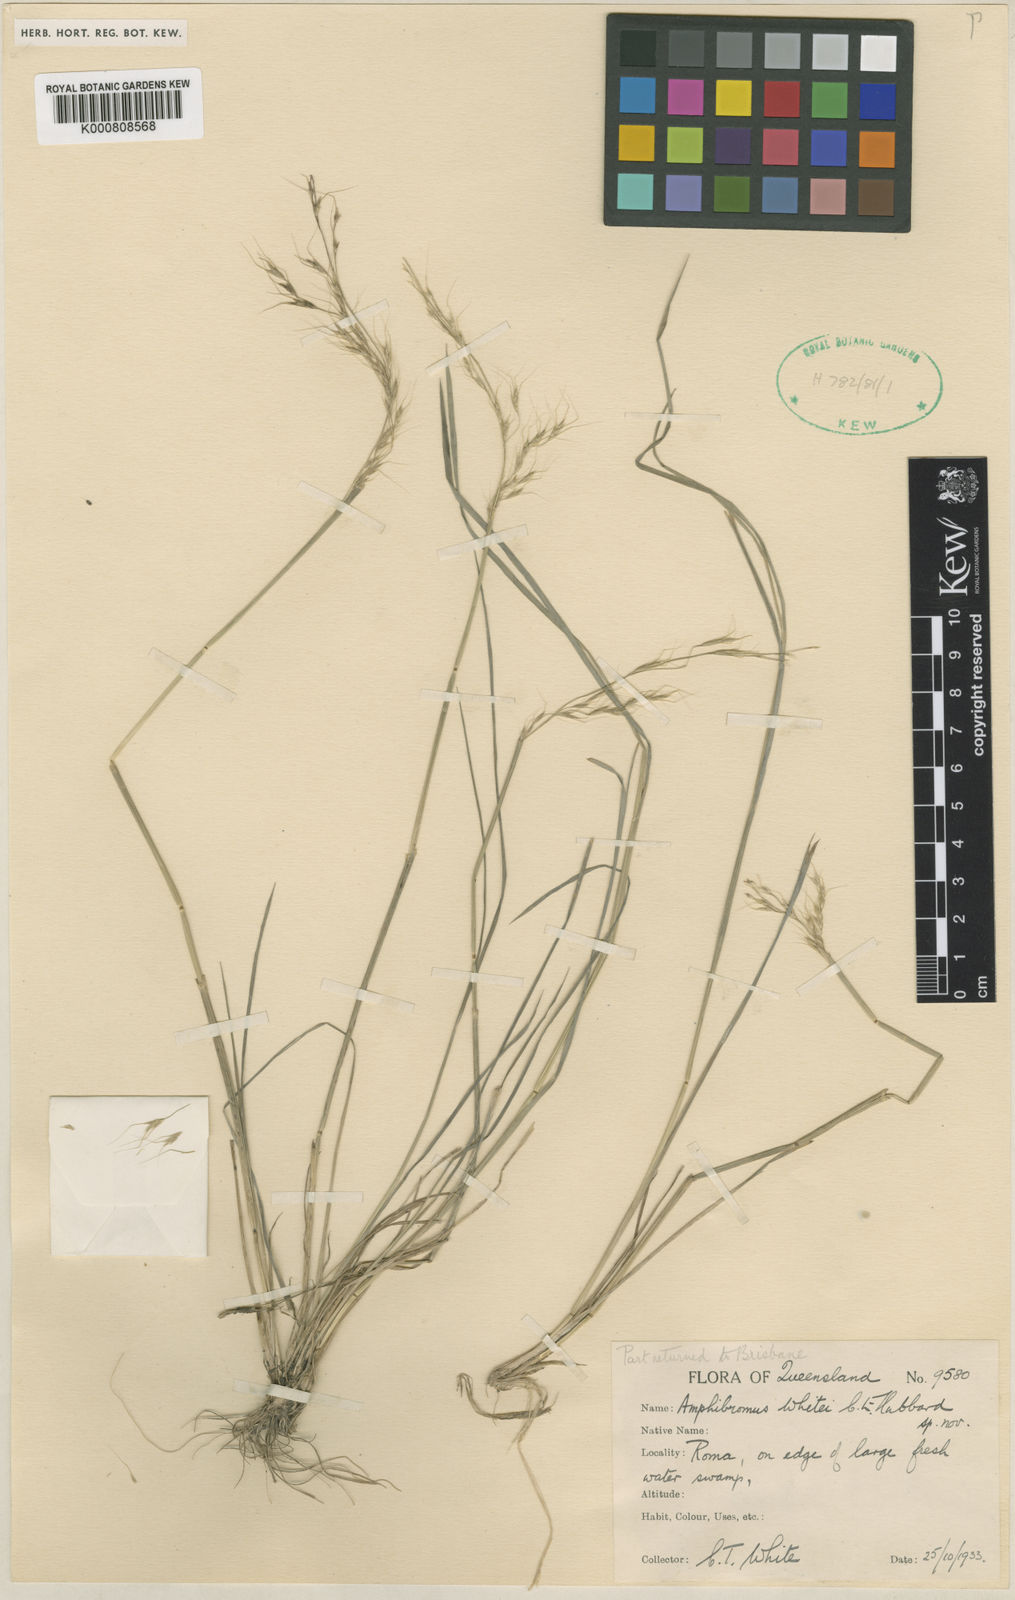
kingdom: Plantae
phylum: Tracheophyta
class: Liliopsida
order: Poales
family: Poaceae
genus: Helictotrichon
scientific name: Helictotrichon
